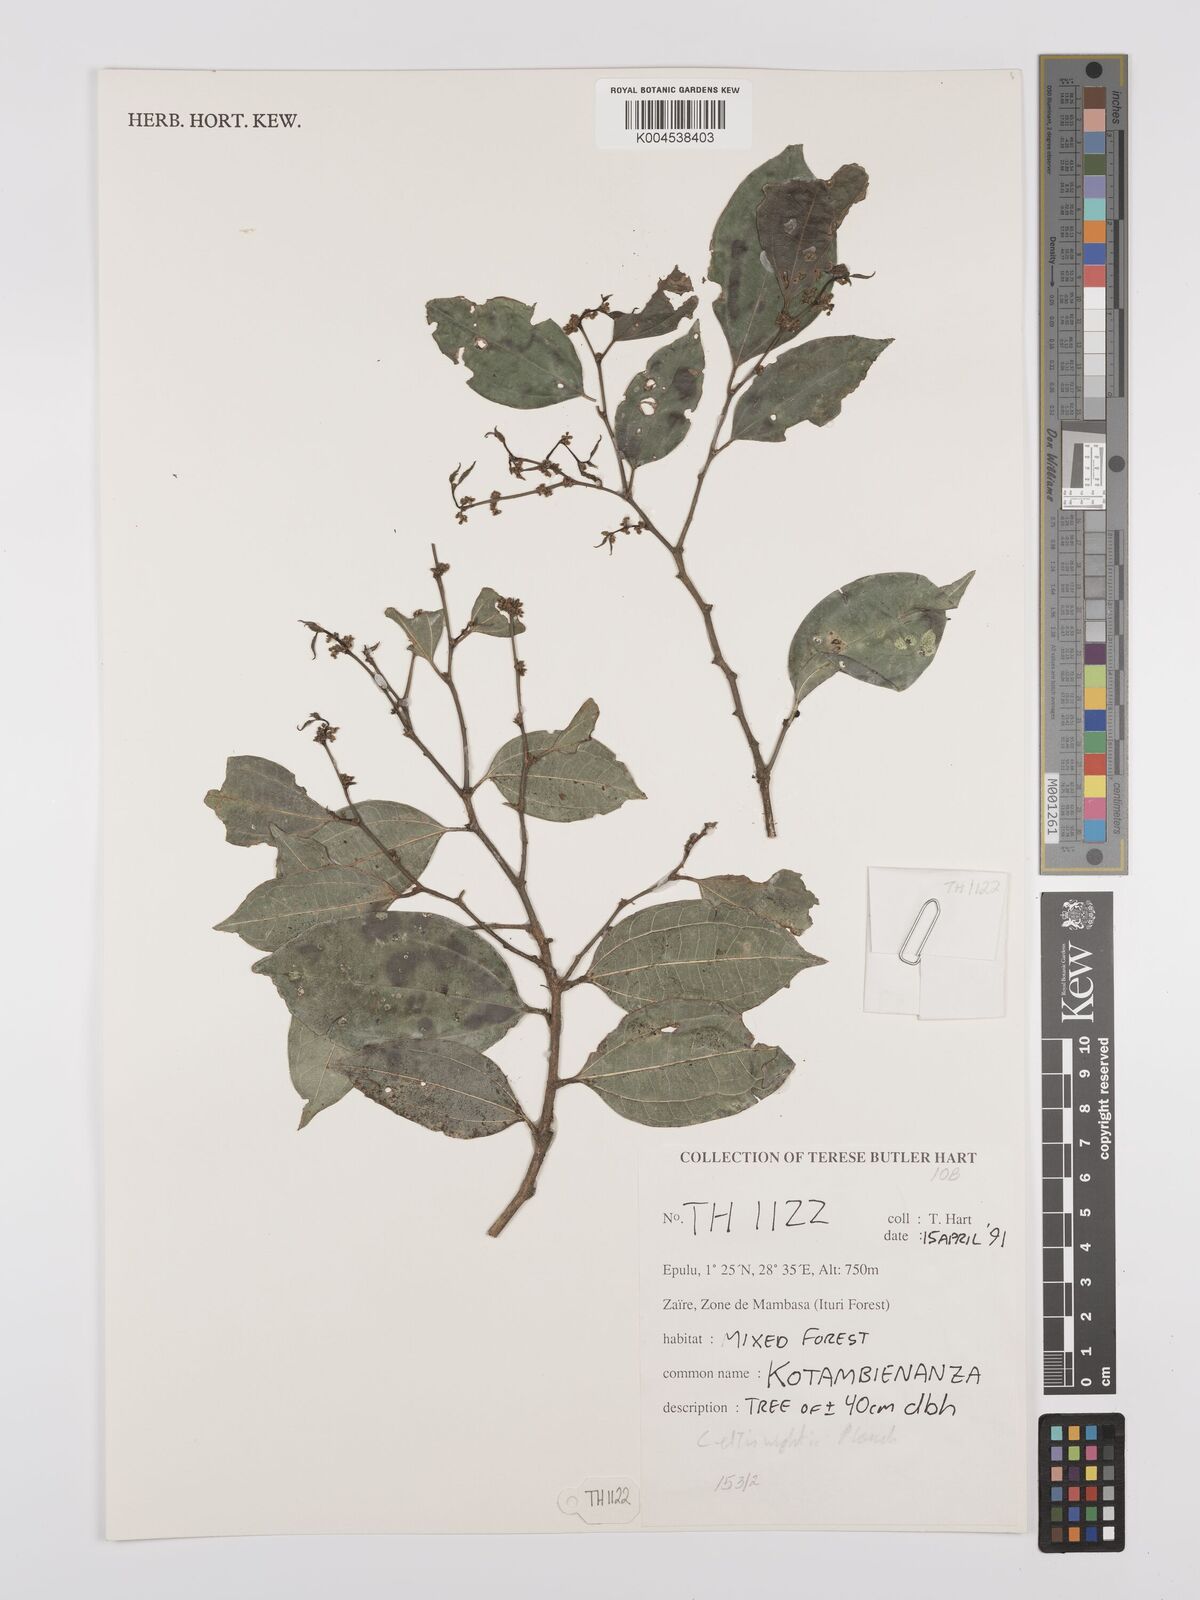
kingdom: Plantae
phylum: Tracheophyta
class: Magnoliopsida
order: Rosales
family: Cannabaceae
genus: Celtis
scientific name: Celtis philippensis
